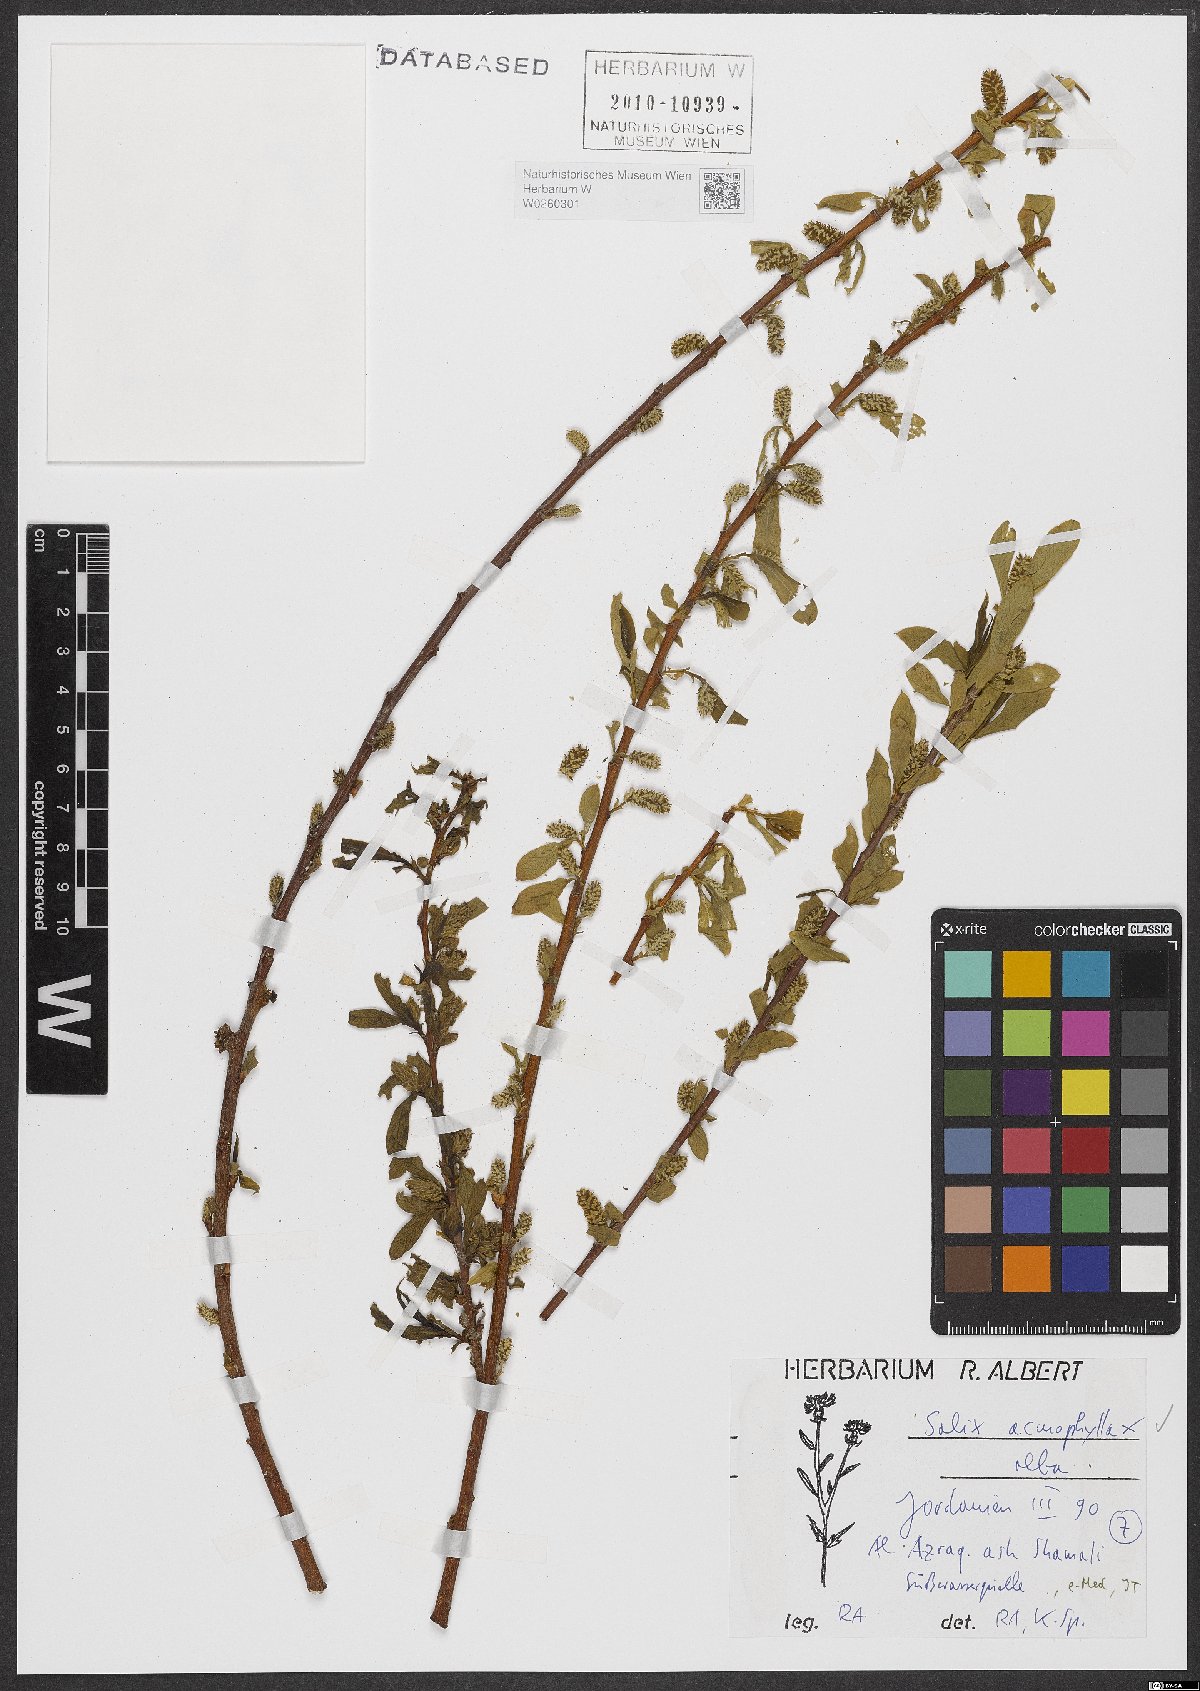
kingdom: Plantae
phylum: Tracheophyta
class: Magnoliopsida
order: Malpighiales
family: Salicaceae
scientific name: Salicaceae
